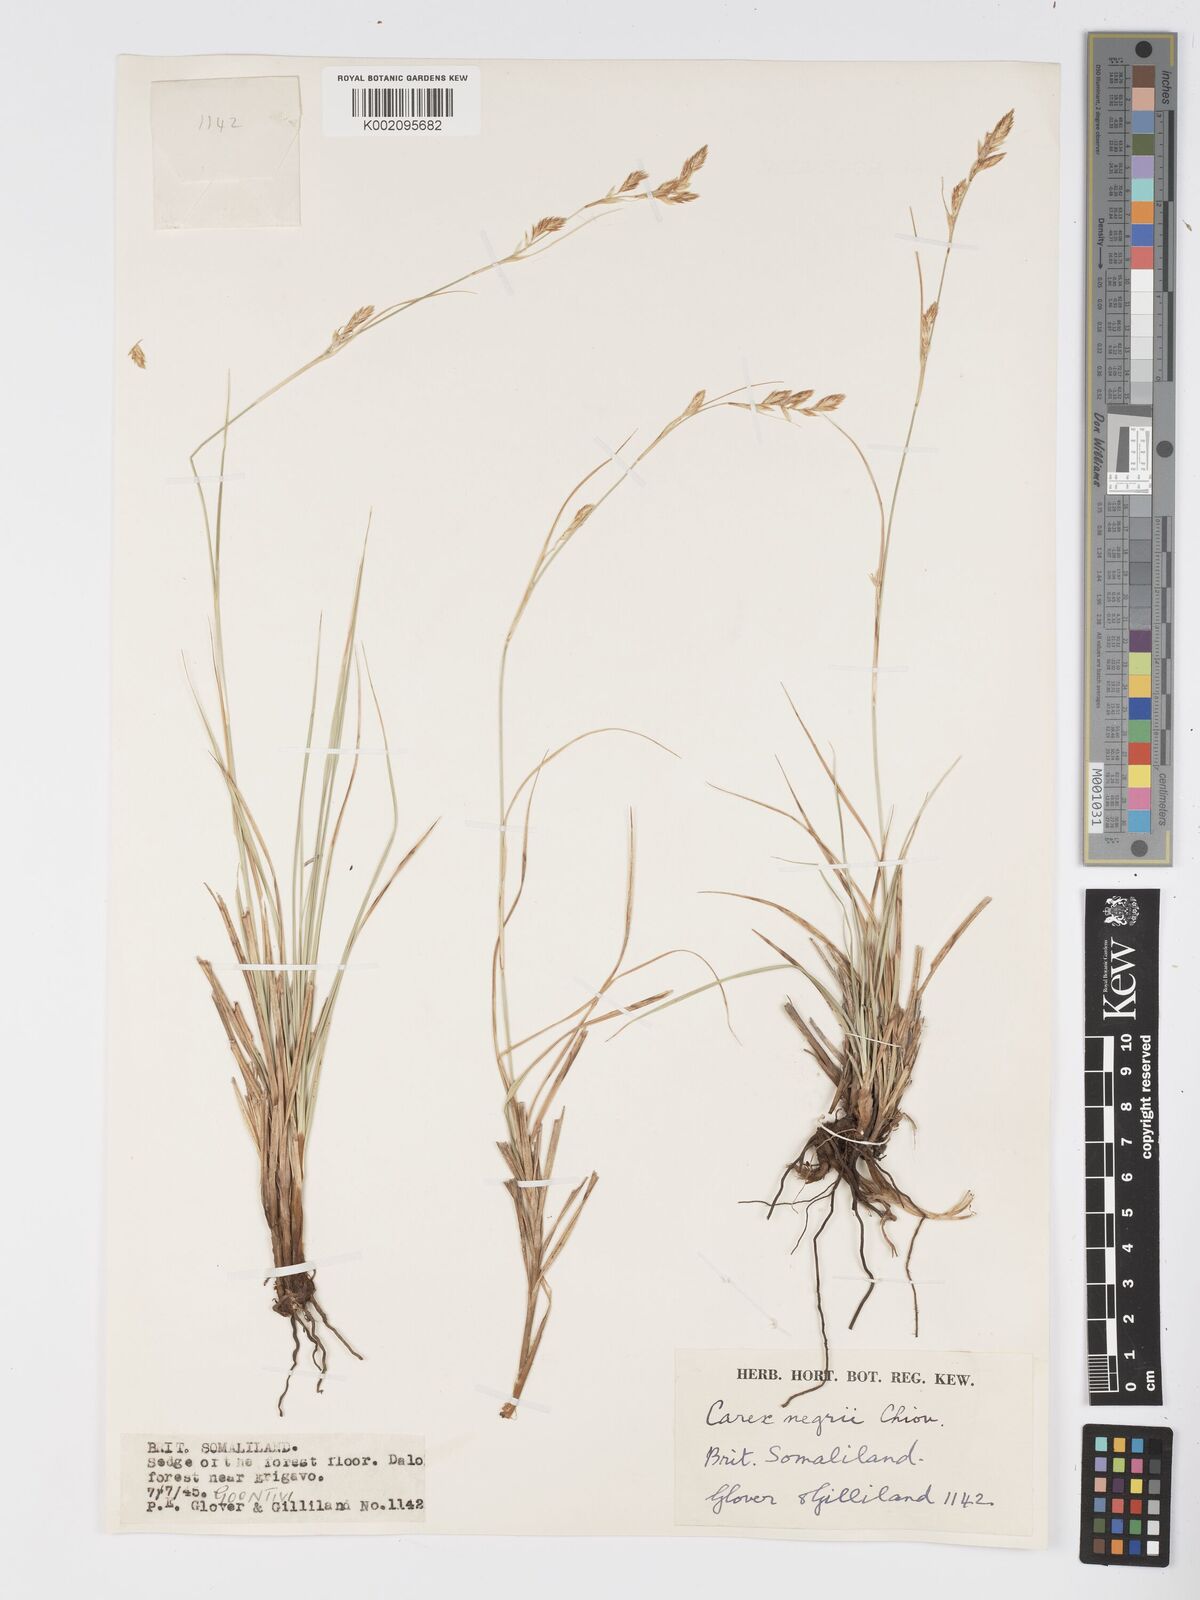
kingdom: Plantae
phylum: Tracheophyta
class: Liliopsida
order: Poales
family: Cyperaceae
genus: Carex
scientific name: Carex negrii
